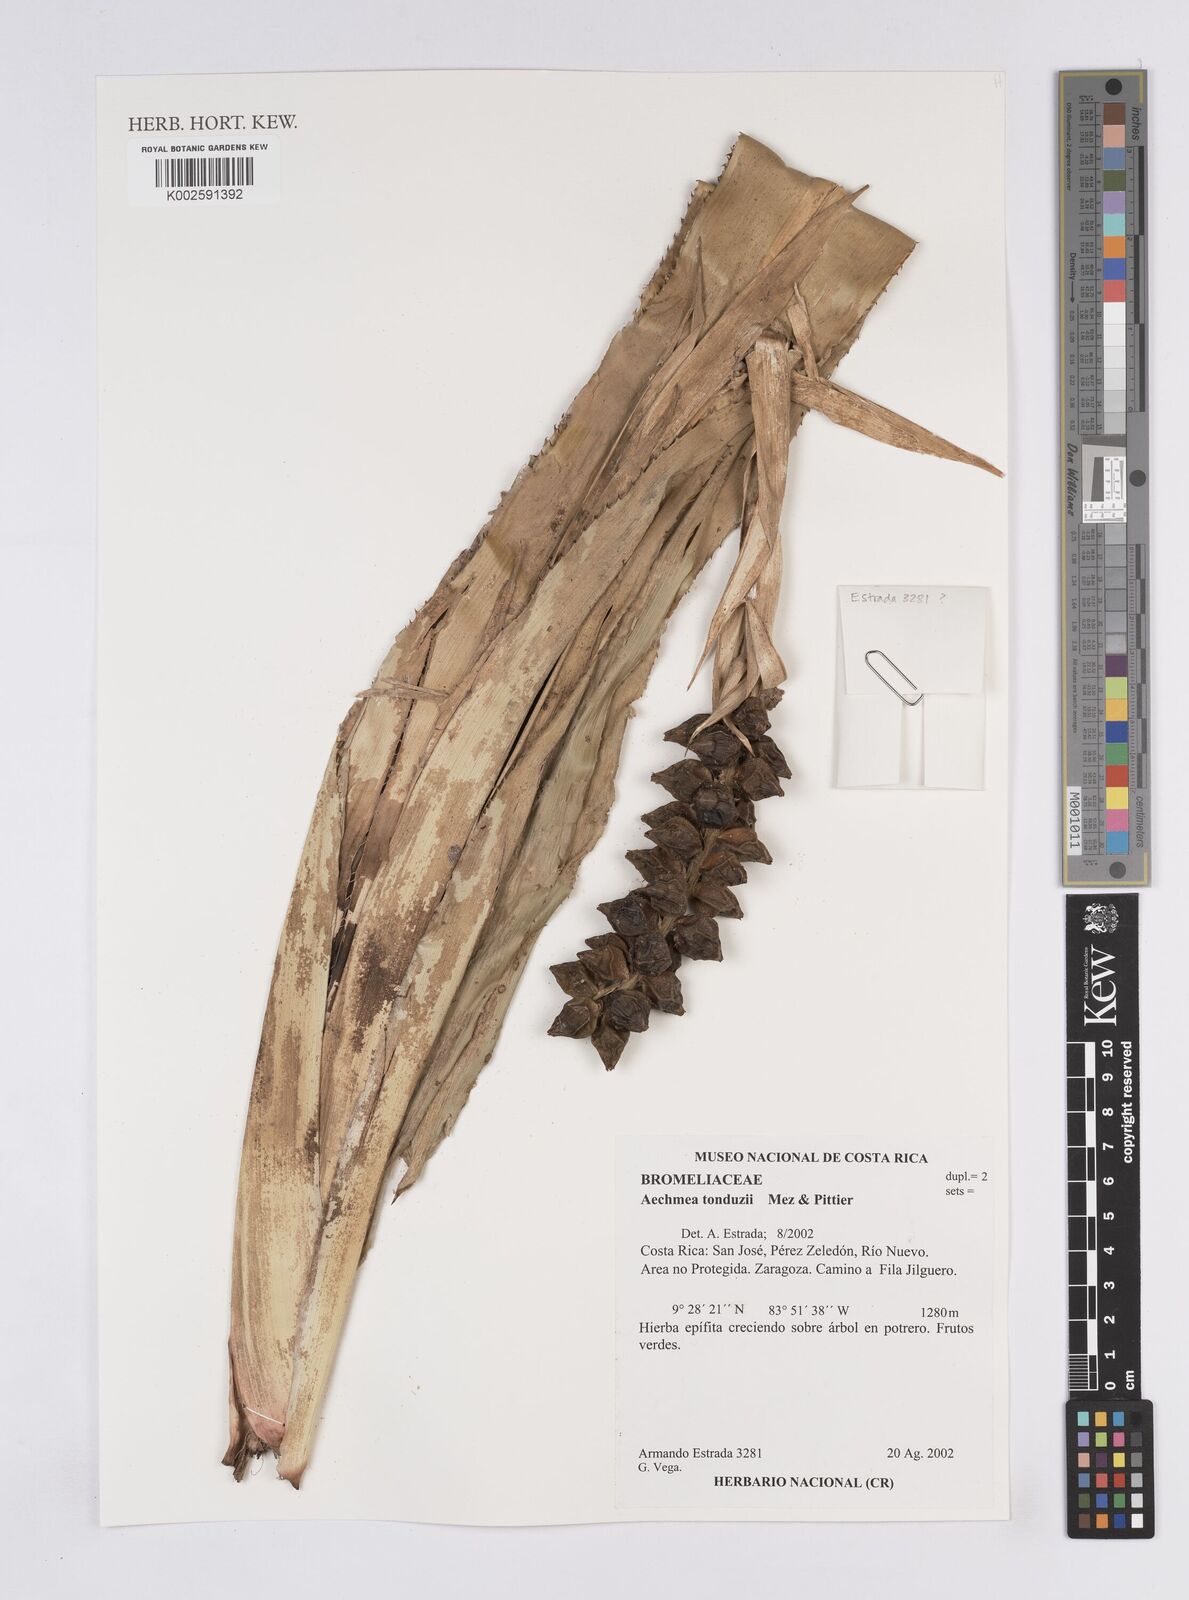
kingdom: Plantae
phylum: Tracheophyta
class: Liliopsida
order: Poales
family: Bromeliaceae
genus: Ronnbergia
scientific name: Ronnbergia tonduzii
